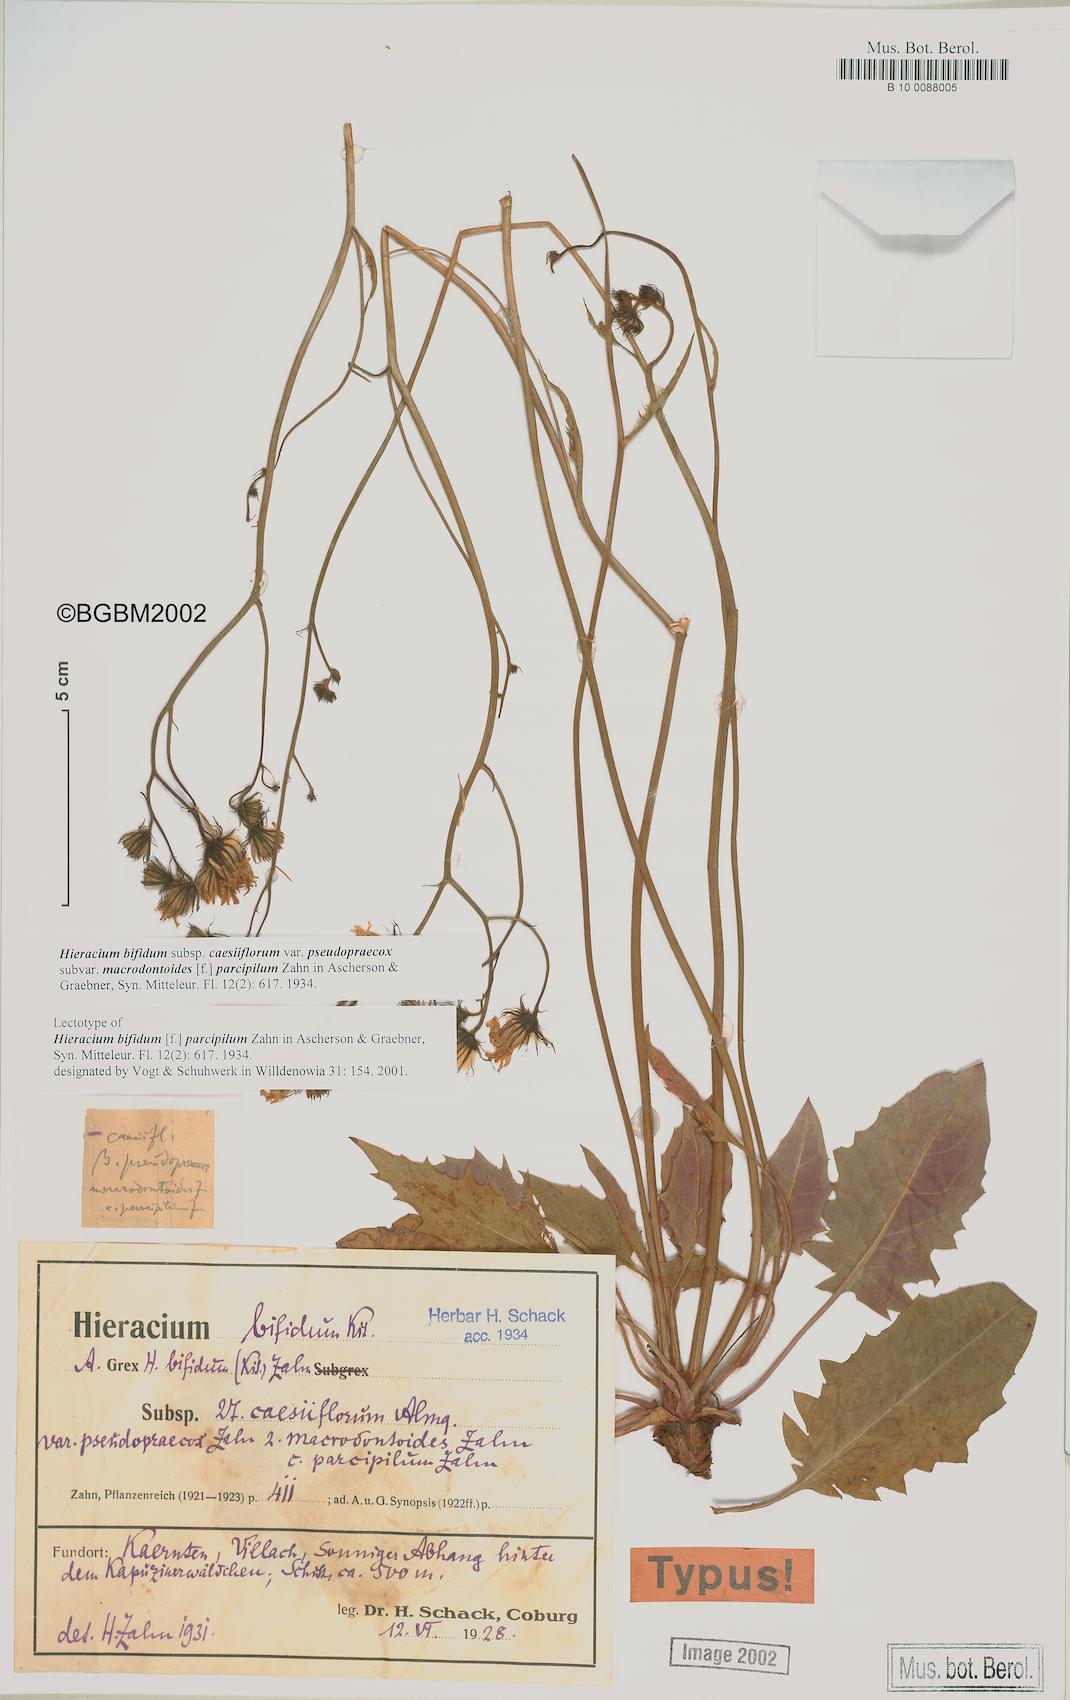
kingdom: Plantae
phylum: Tracheophyta
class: Magnoliopsida
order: Asterales
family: Asteraceae
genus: Hieracium
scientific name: Hieracium bifidum
